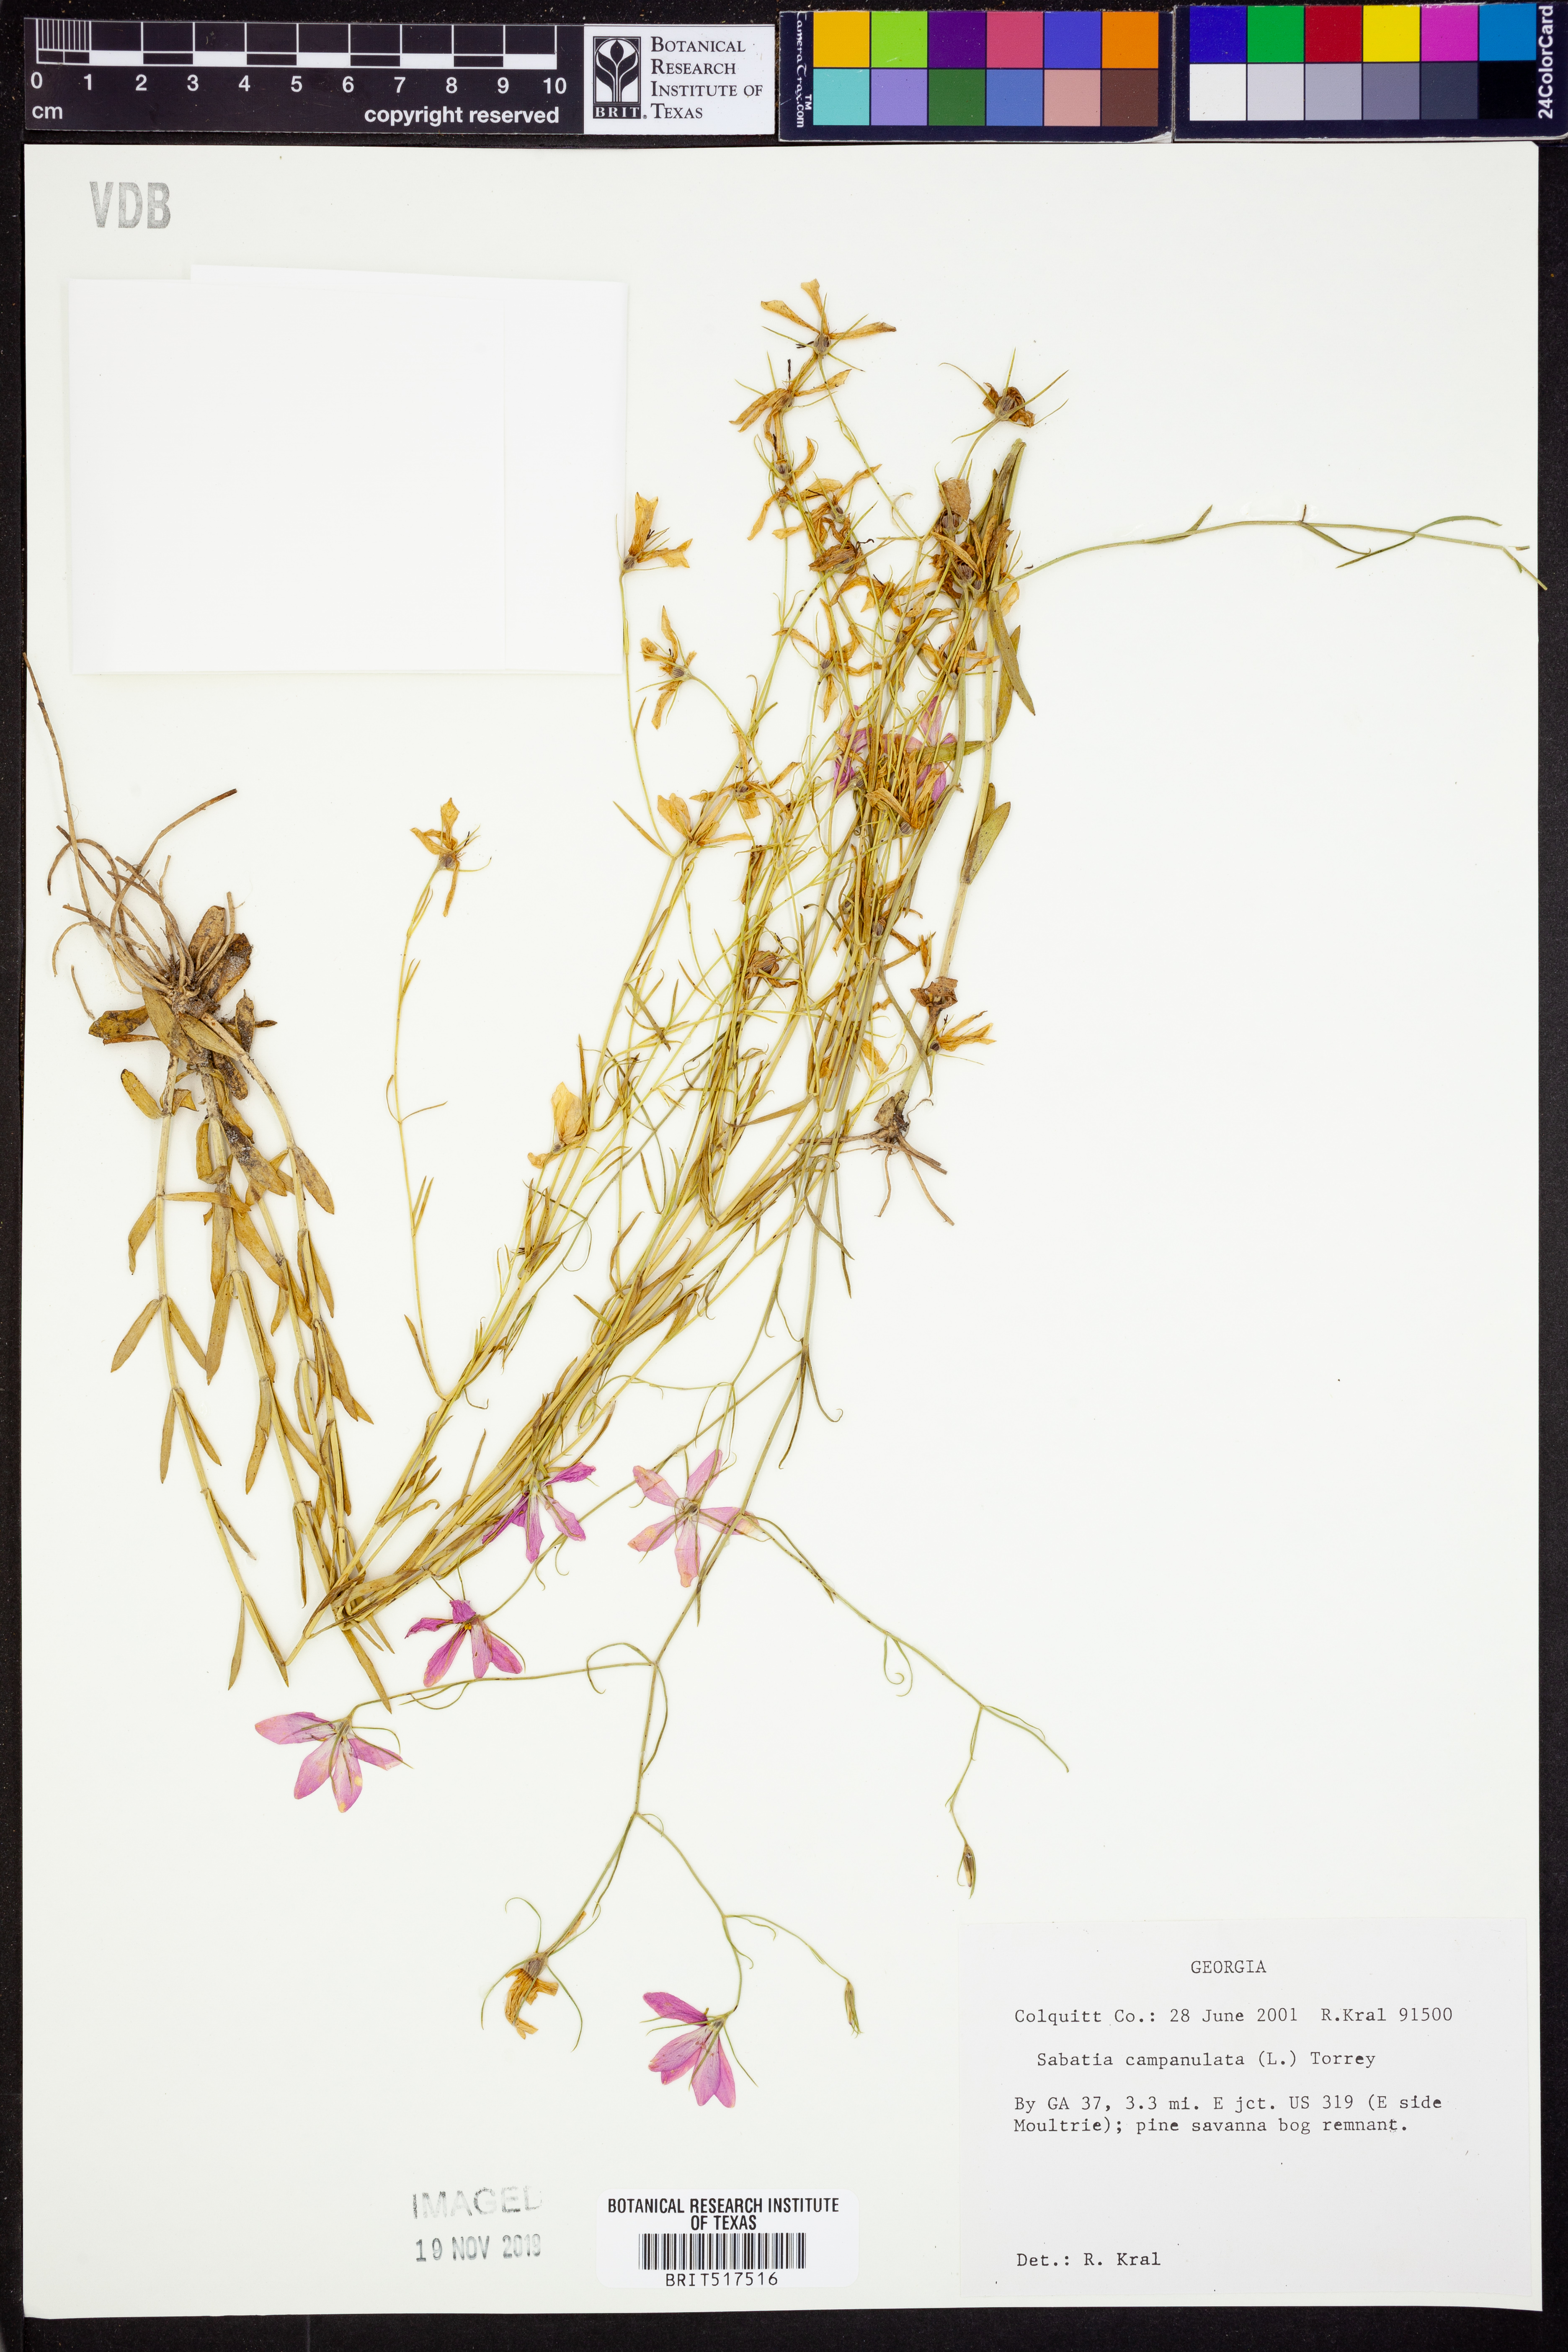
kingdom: Plantae
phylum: Tracheophyta
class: Magnoliopsida
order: Gentianales
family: Gentianaceae
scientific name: Gentianaceae
